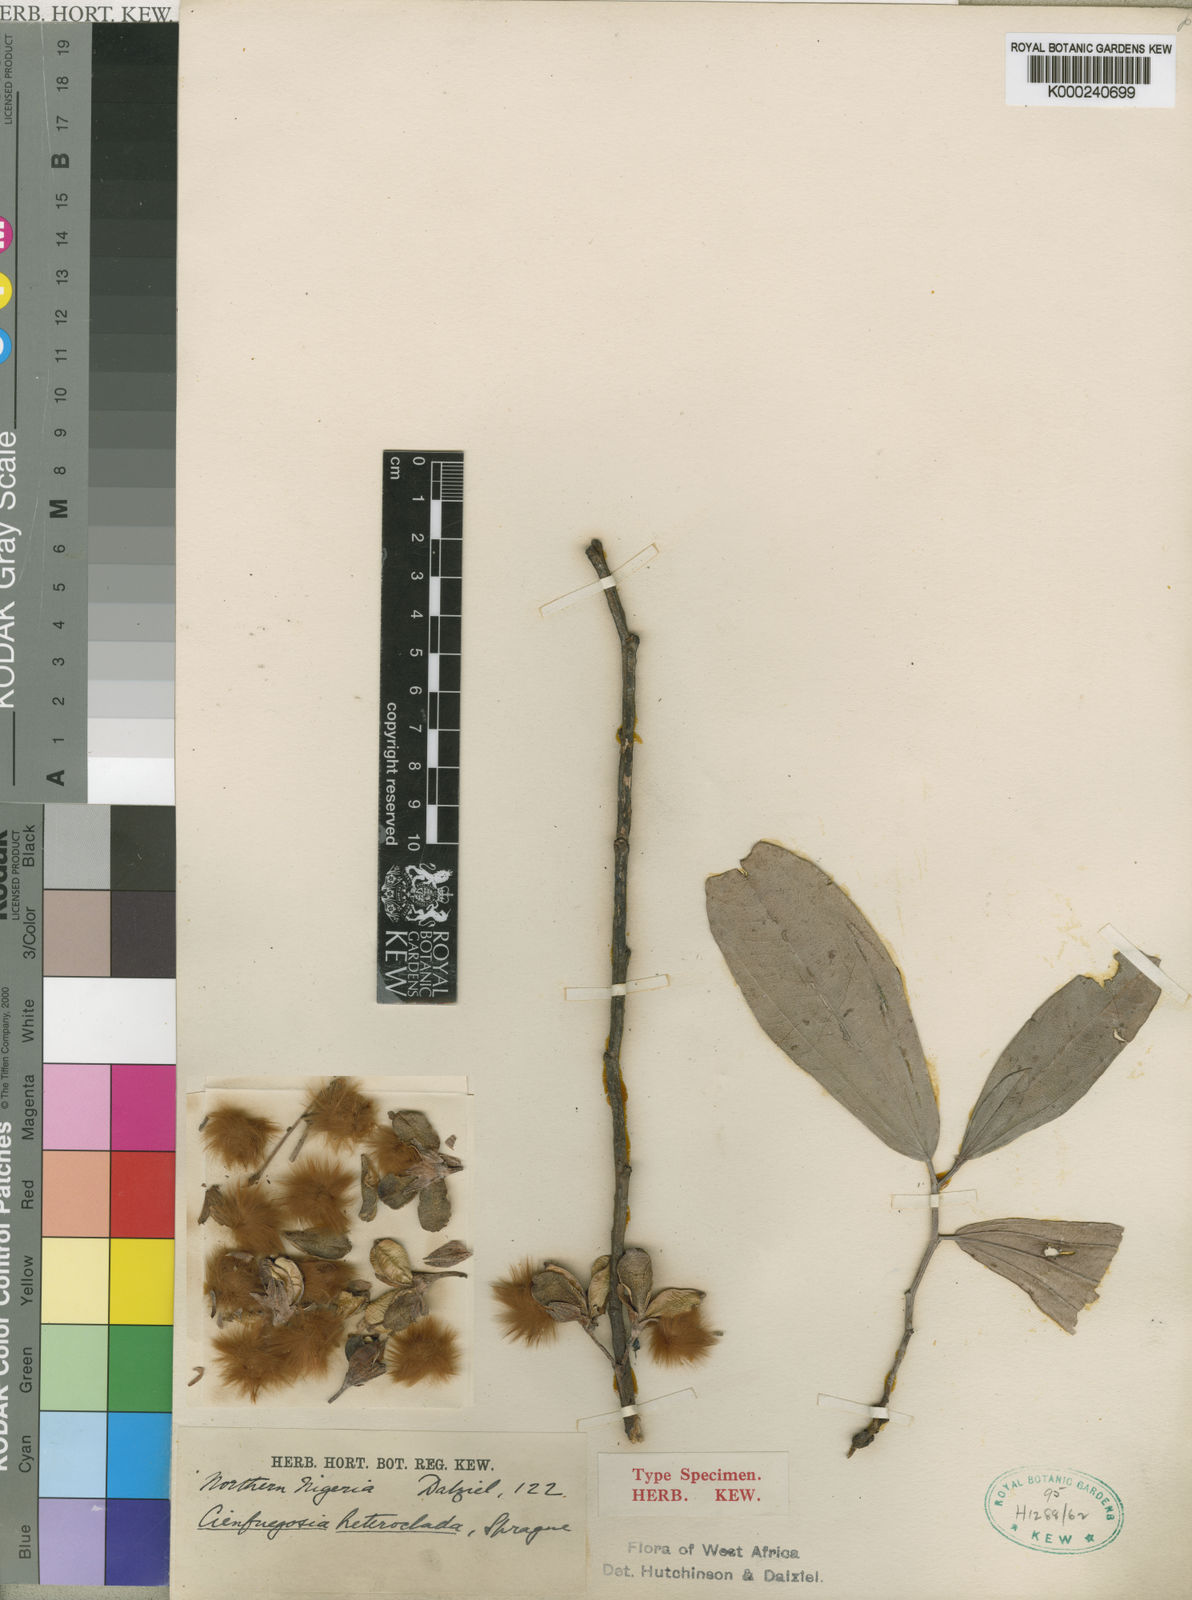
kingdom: Plantae
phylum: Tracheophyta
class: Magnoliopsida
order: Malvales
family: Malvaceae
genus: Cienfuegosia
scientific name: Cienfuegosia heteroclada
